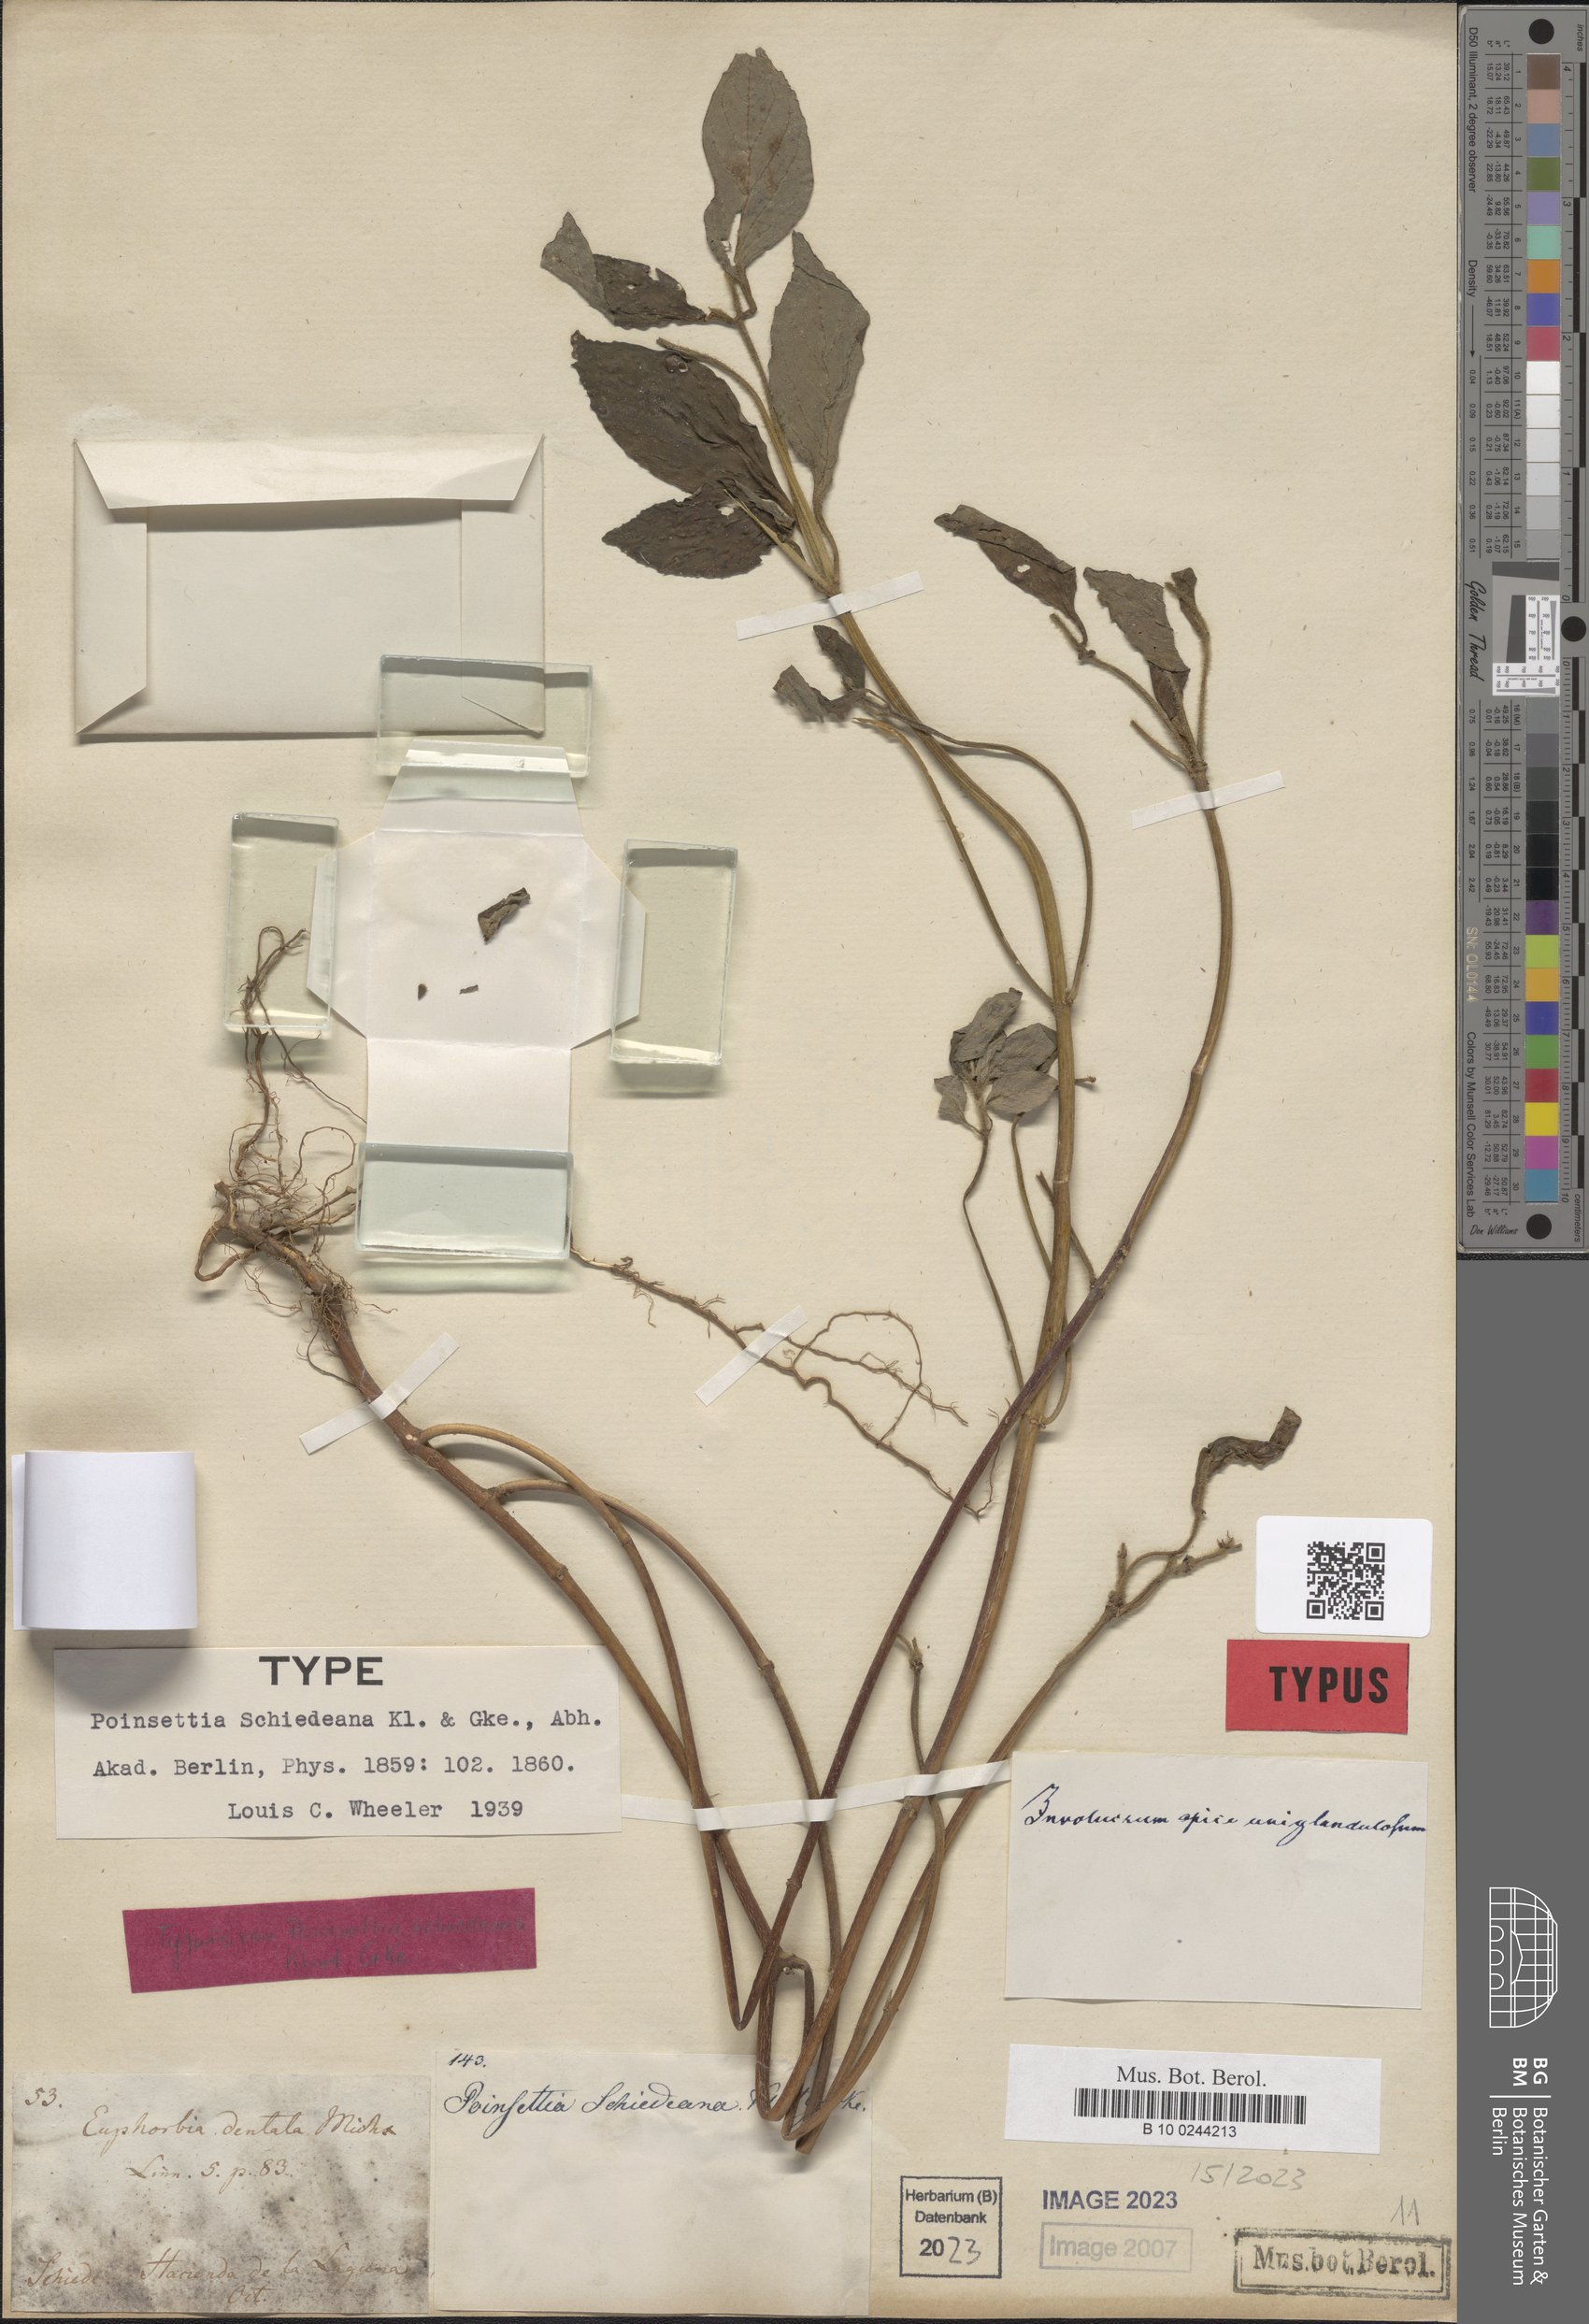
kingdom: Plantae
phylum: Tracheophyta
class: Magnoliopsida
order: Malpighiales
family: Euphorbiaceae
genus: Euphorbia
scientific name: Euphorbia schiedeana
